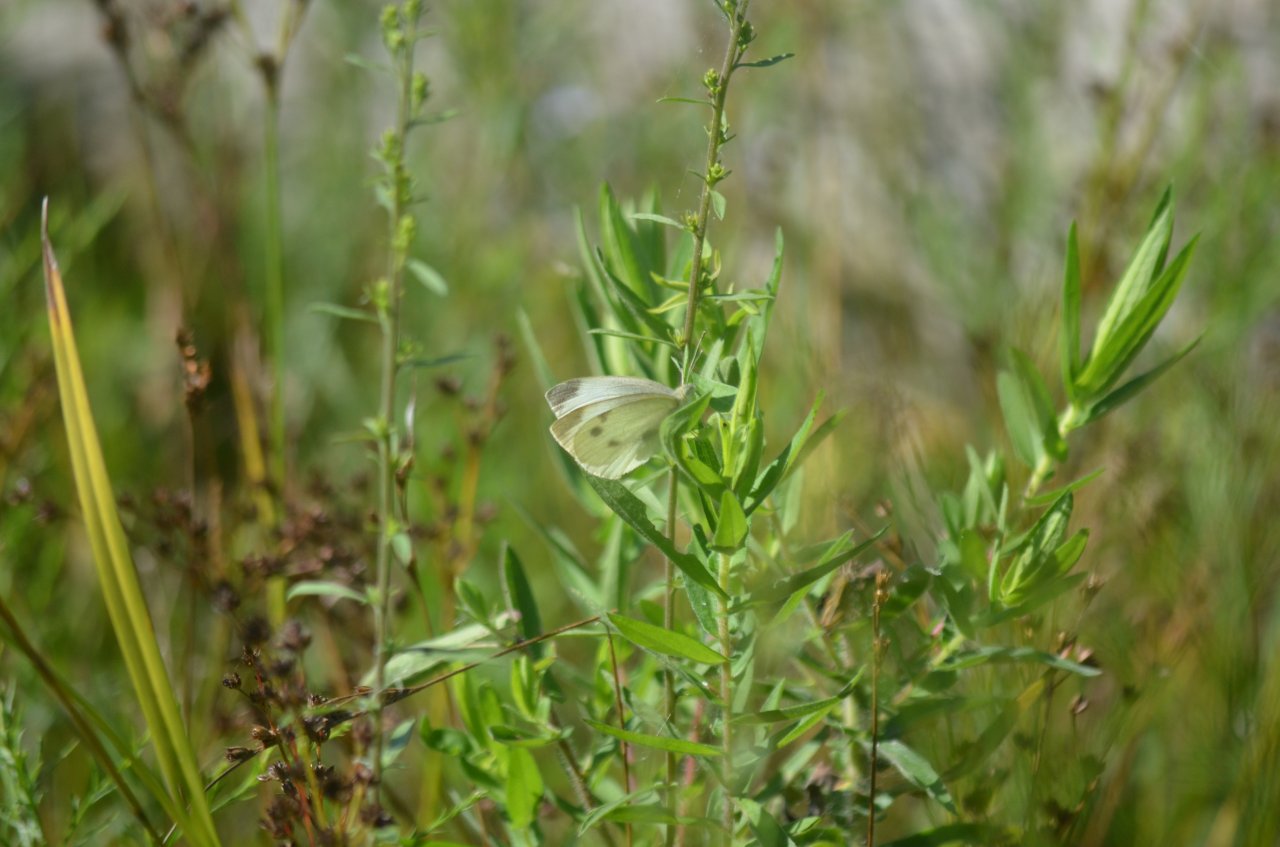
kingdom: Animalia
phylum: Arthropoda
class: Insecta
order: Lepidoptera
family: Pieridae
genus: Pieris
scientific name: Pieris rapae
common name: Cabbage White
